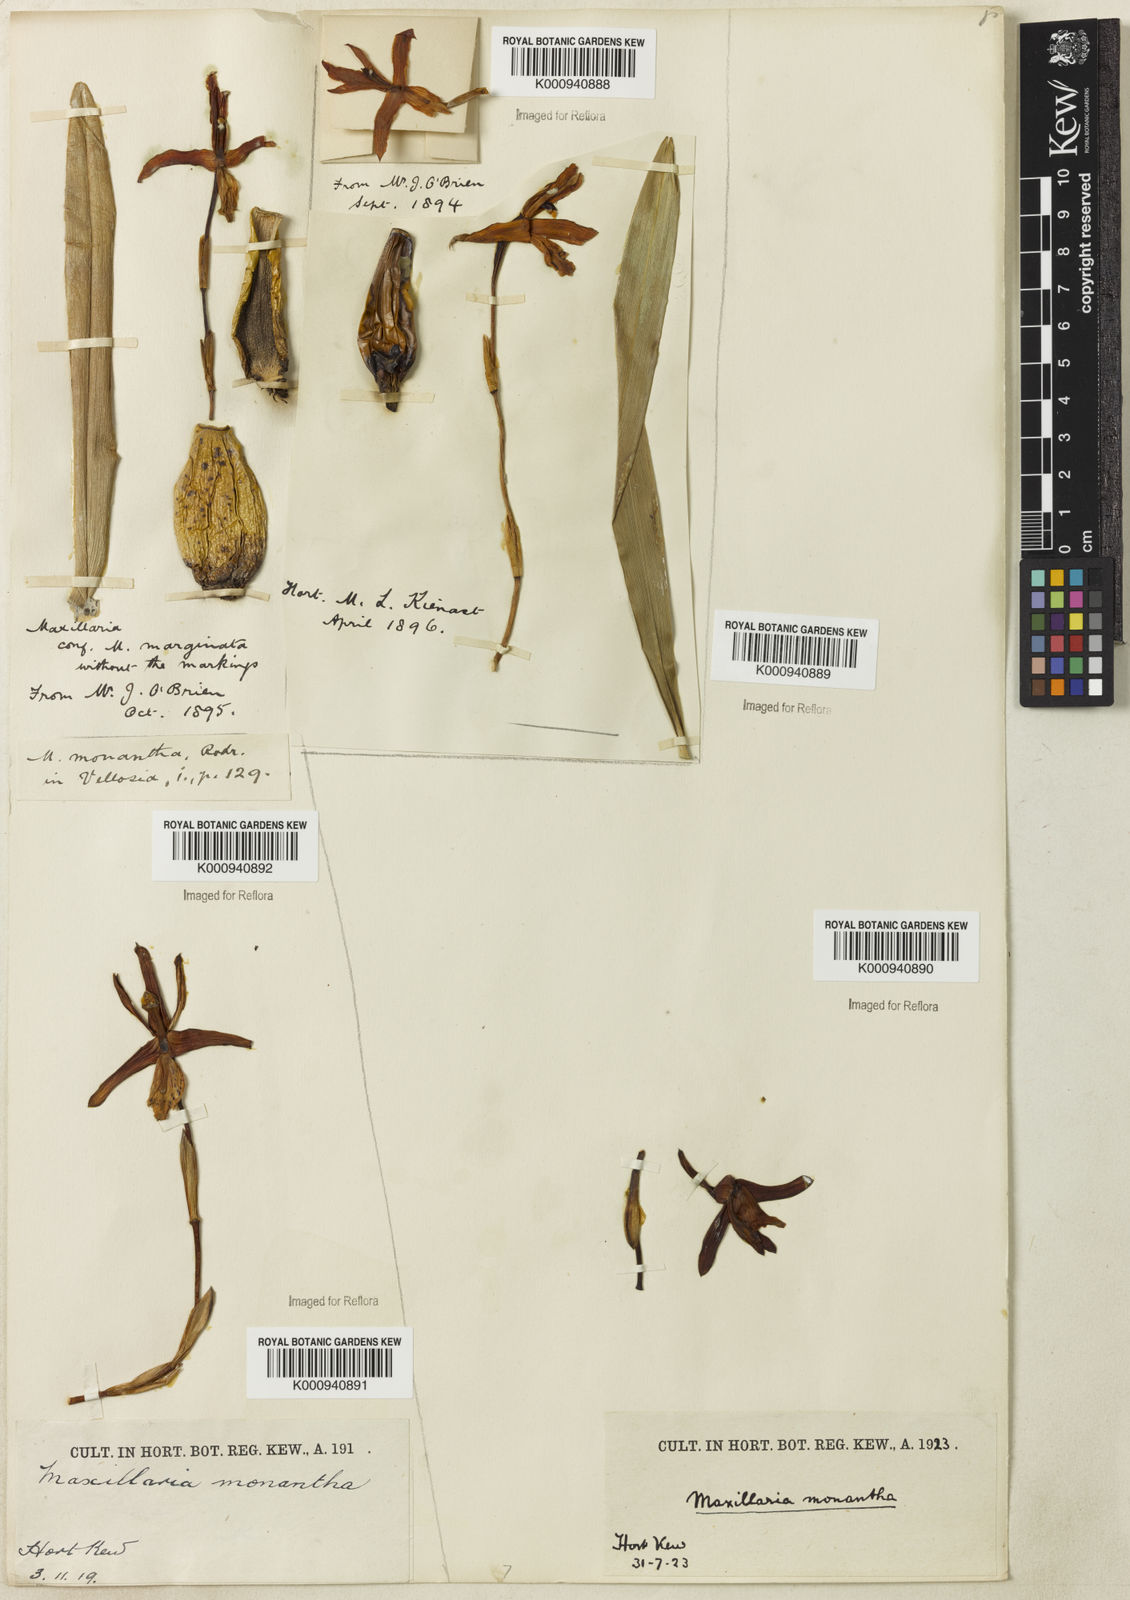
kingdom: Plantae
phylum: Tracheophyta
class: Liliopsida
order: Asparagales
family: Orchidaceae
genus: Maxillaria
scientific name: Maxillaria monantha
